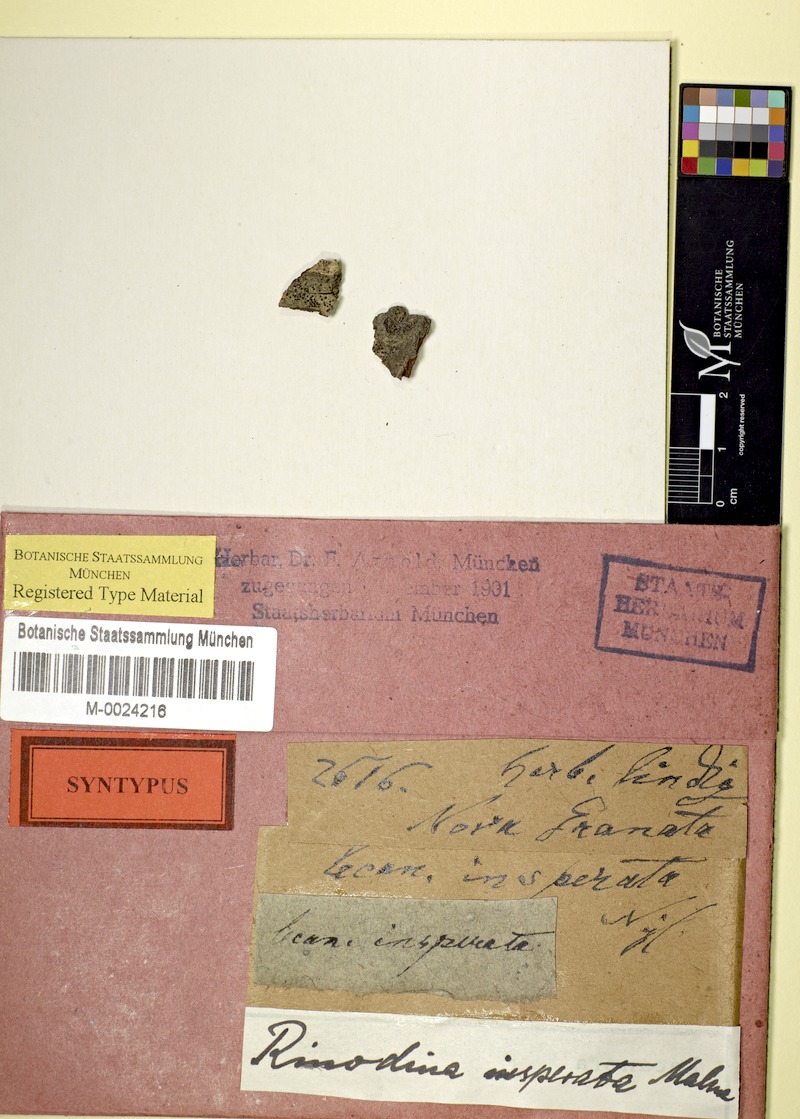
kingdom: Fungi
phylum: Ascomycota
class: Lecanoromycetes
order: Caliciales
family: Caliciaceae
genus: Orcularia
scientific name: Orcularia insperata
